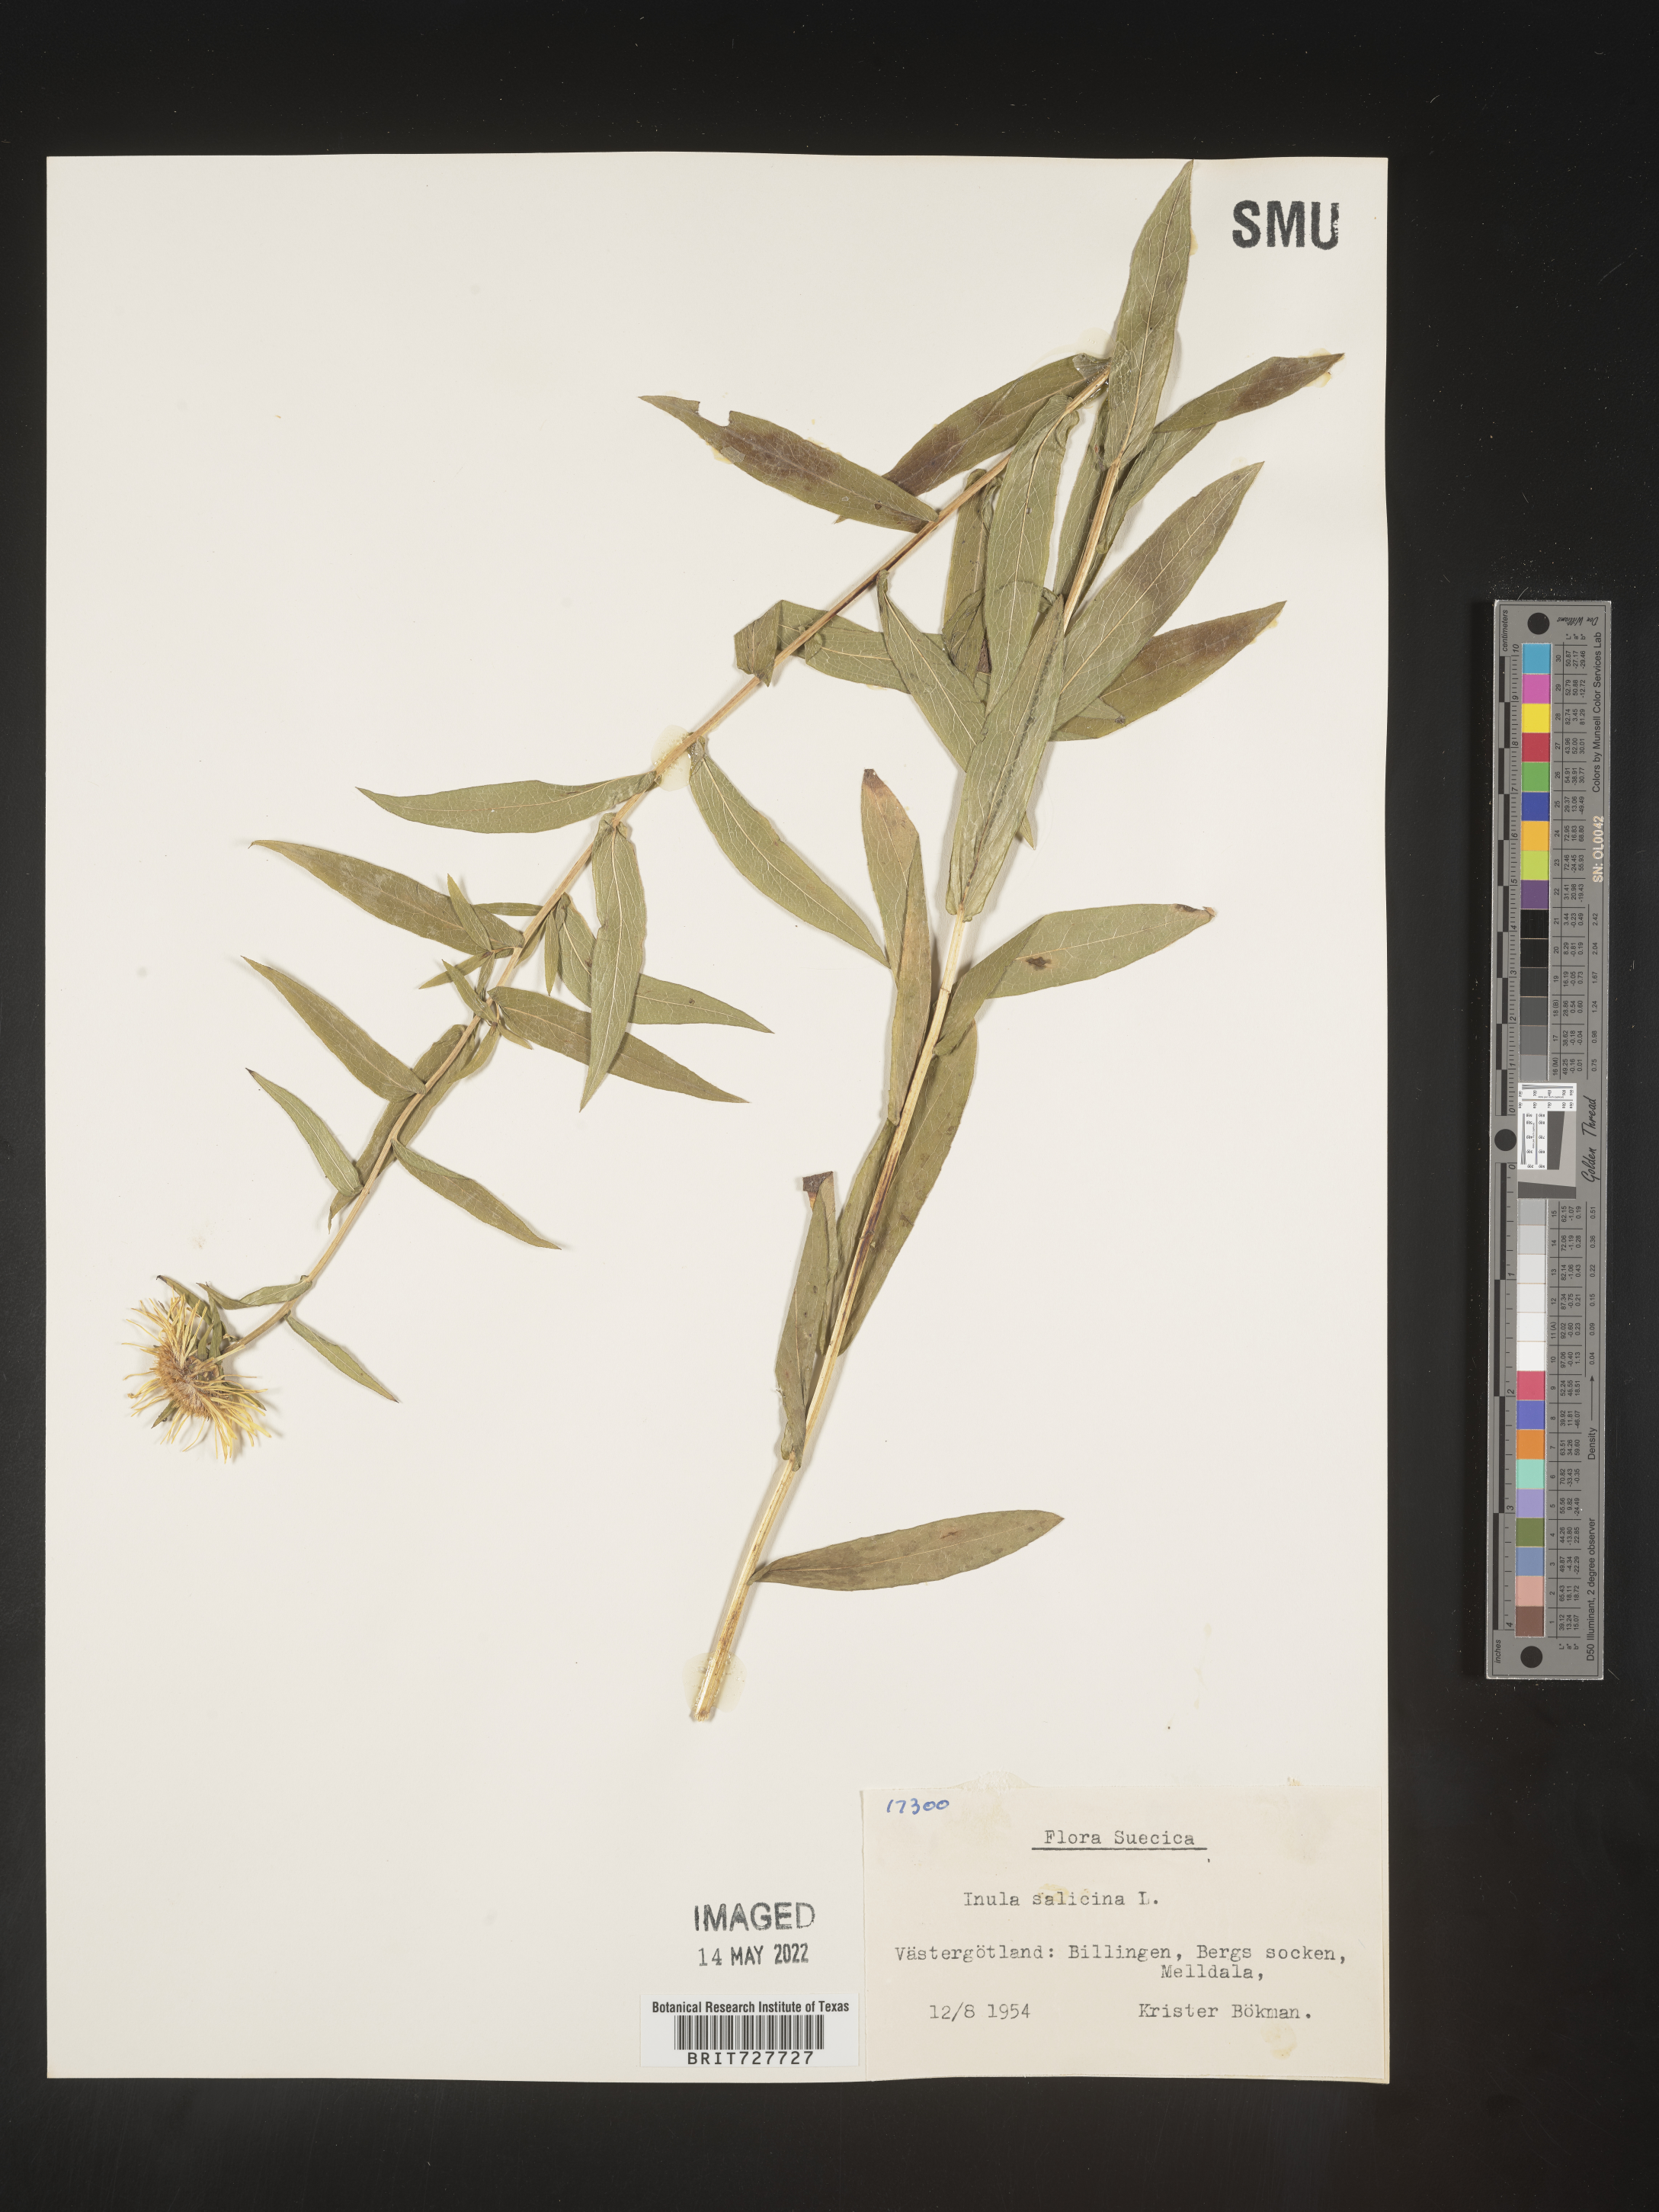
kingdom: Plantae
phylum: Tracheophyta
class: Magnoliopsida
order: Asterales
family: Asteraceae
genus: Inula
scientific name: Inula
